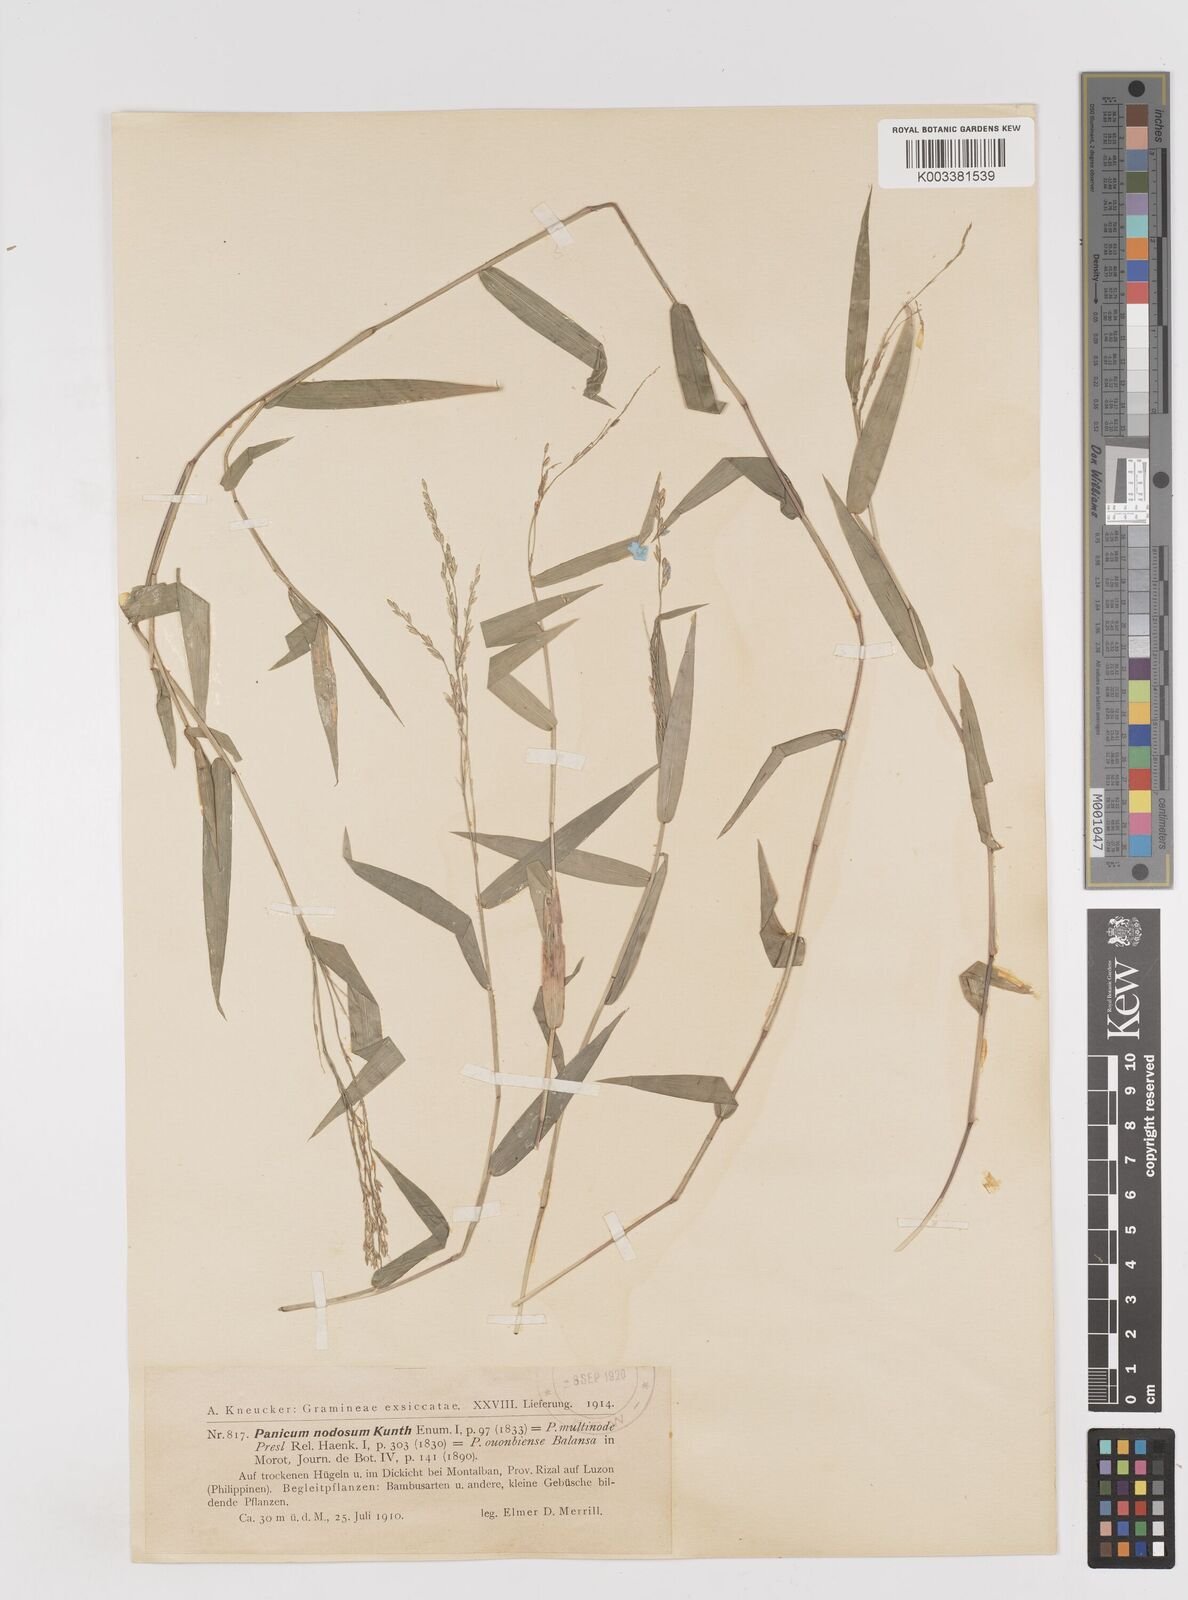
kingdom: Plantae
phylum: Tracheophyta
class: Liliopsida
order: Poales
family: Poaceae
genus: Ottochloa
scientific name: Ottochloa nodosa
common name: Slender-panic grass
